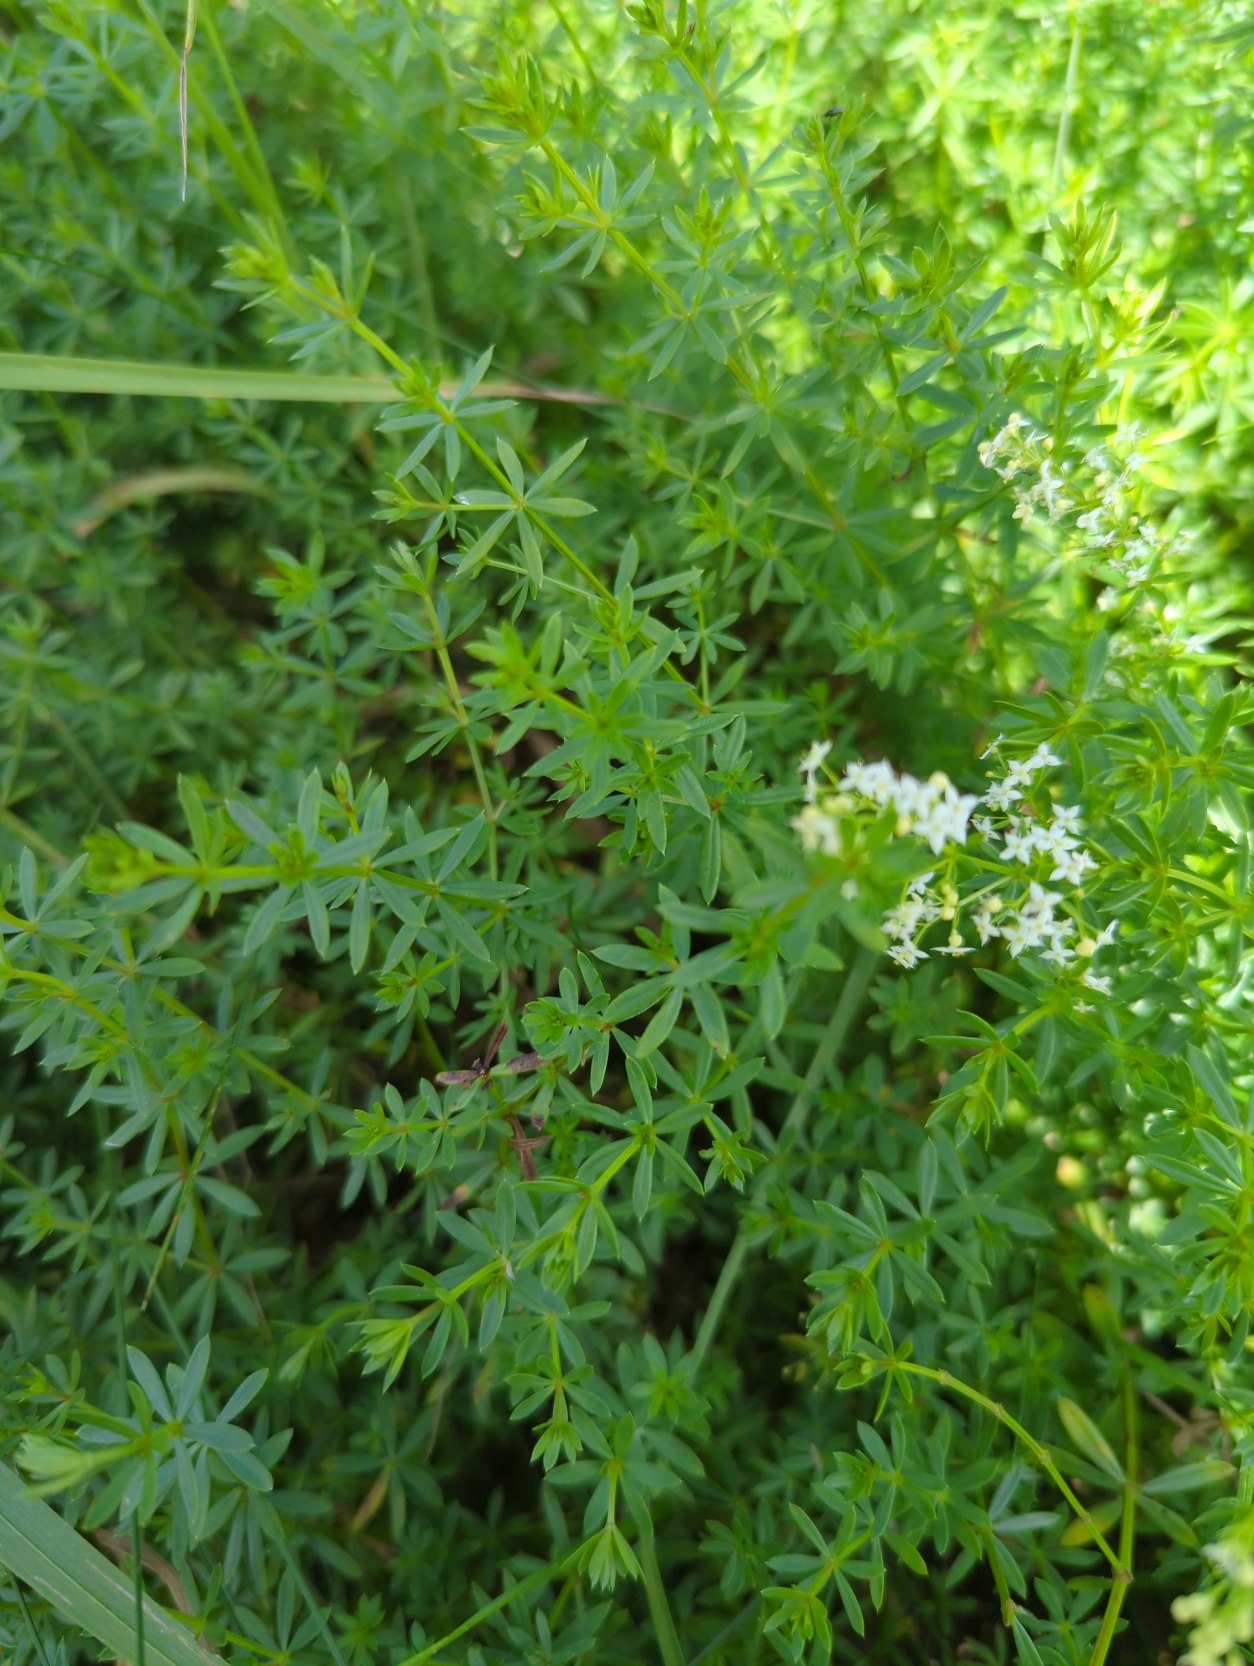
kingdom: Plantae
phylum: Tracheophyta
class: Magnoliopsida
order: Gentianales
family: Rubiaceae
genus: Galium
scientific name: Galium mollugo
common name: Hvid snerre
